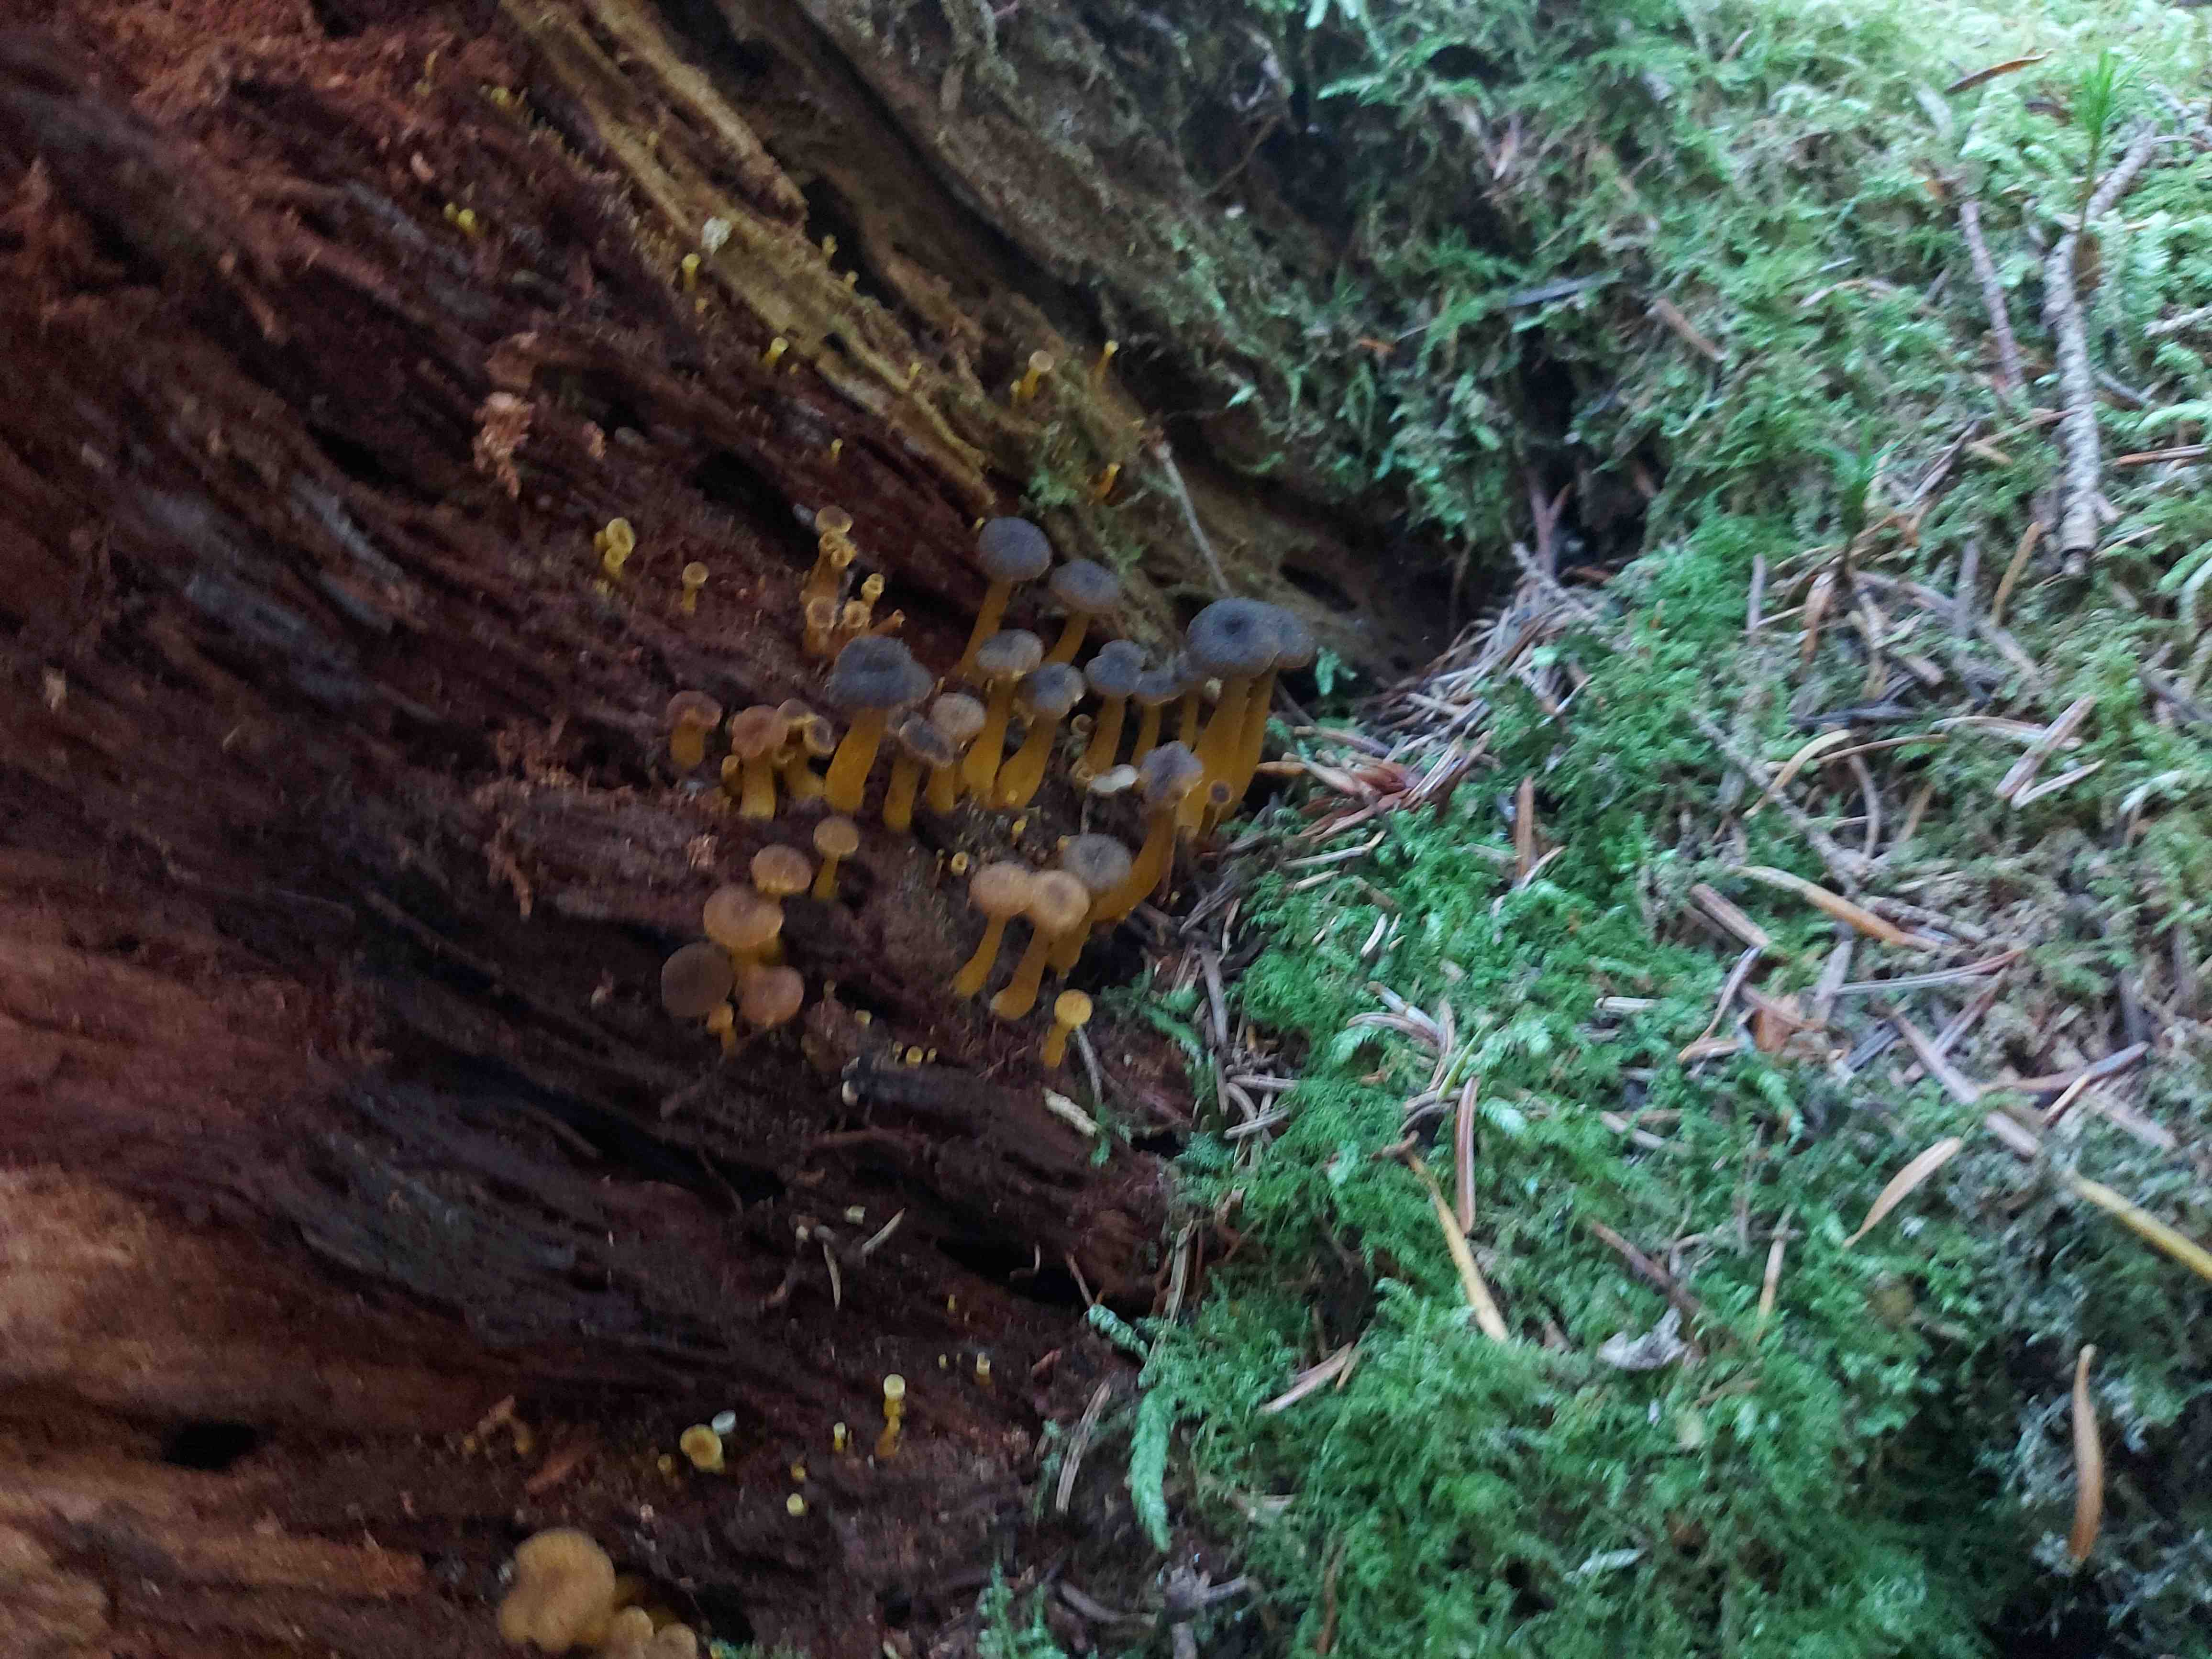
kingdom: Fungi
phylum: Basidiomycota
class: Agaricomycetes
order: Cantharellales
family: Hydnaceae
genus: Craterellus
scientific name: Craterellus tubaeformis
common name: tragt-kantarel
